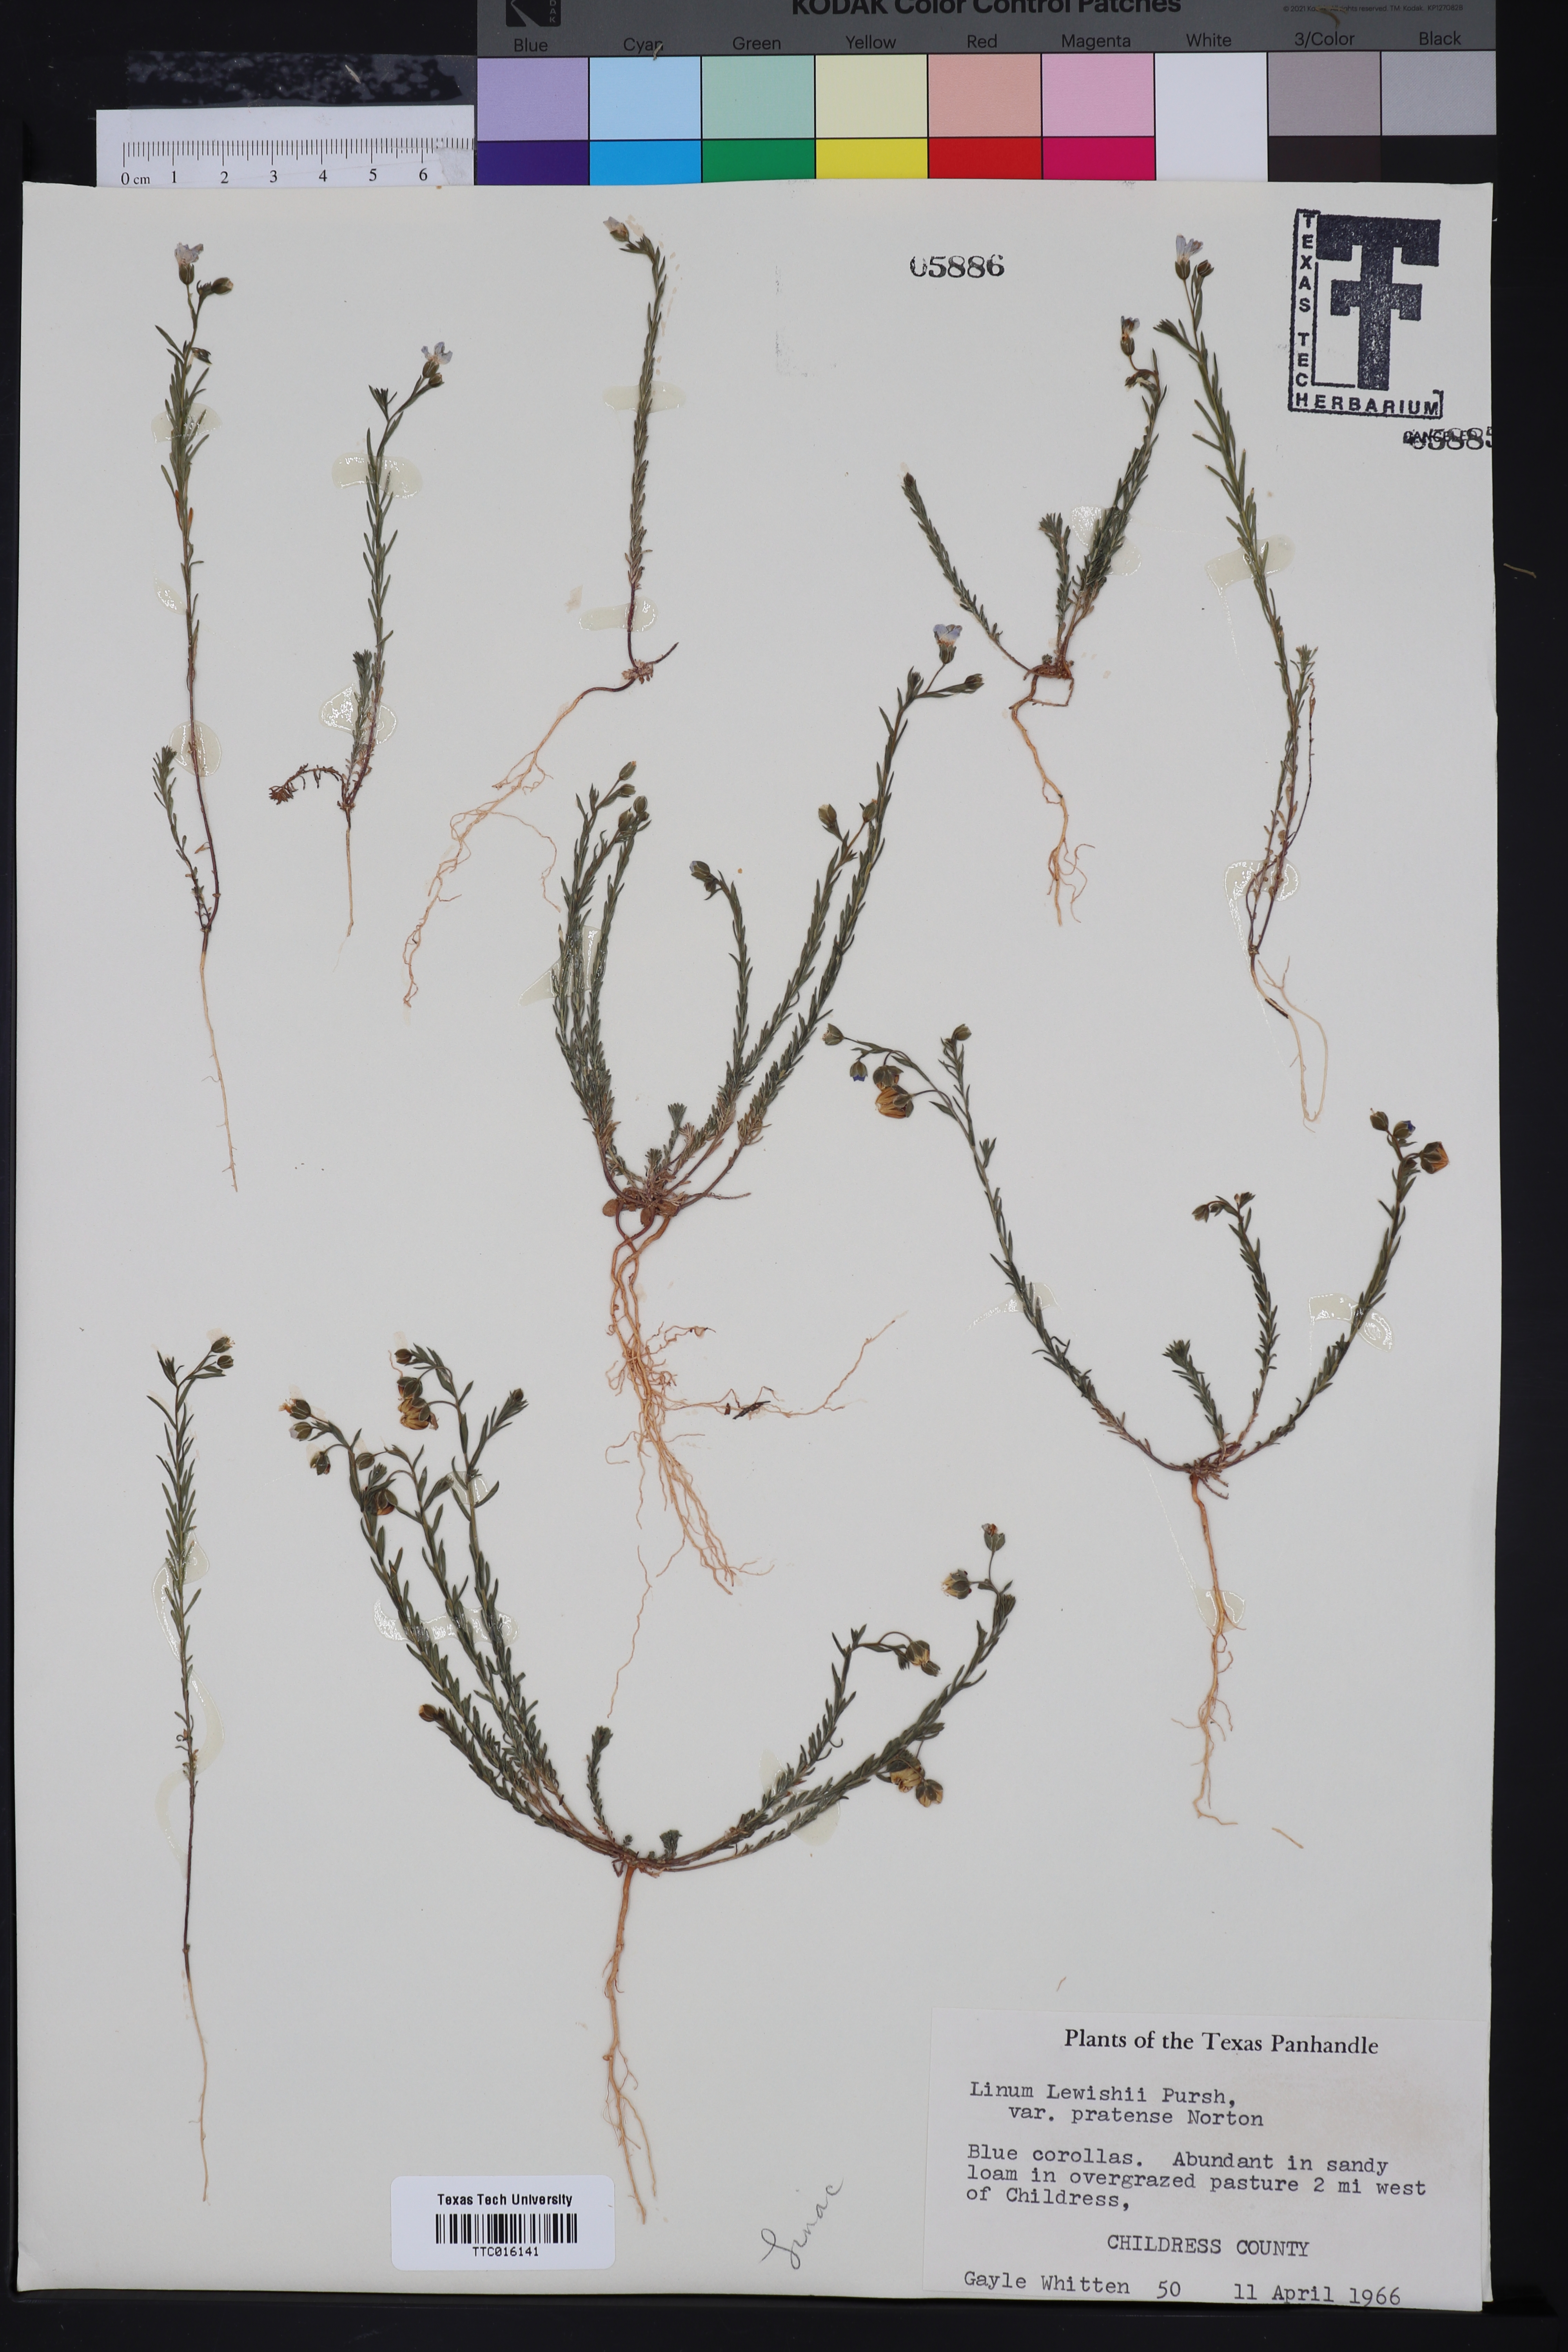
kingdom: Plantae
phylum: Tracheophyta
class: Magnoliopsida
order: Malpighiales
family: Linaceae
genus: Linum
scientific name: Linum lewisii
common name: Prairie flax
